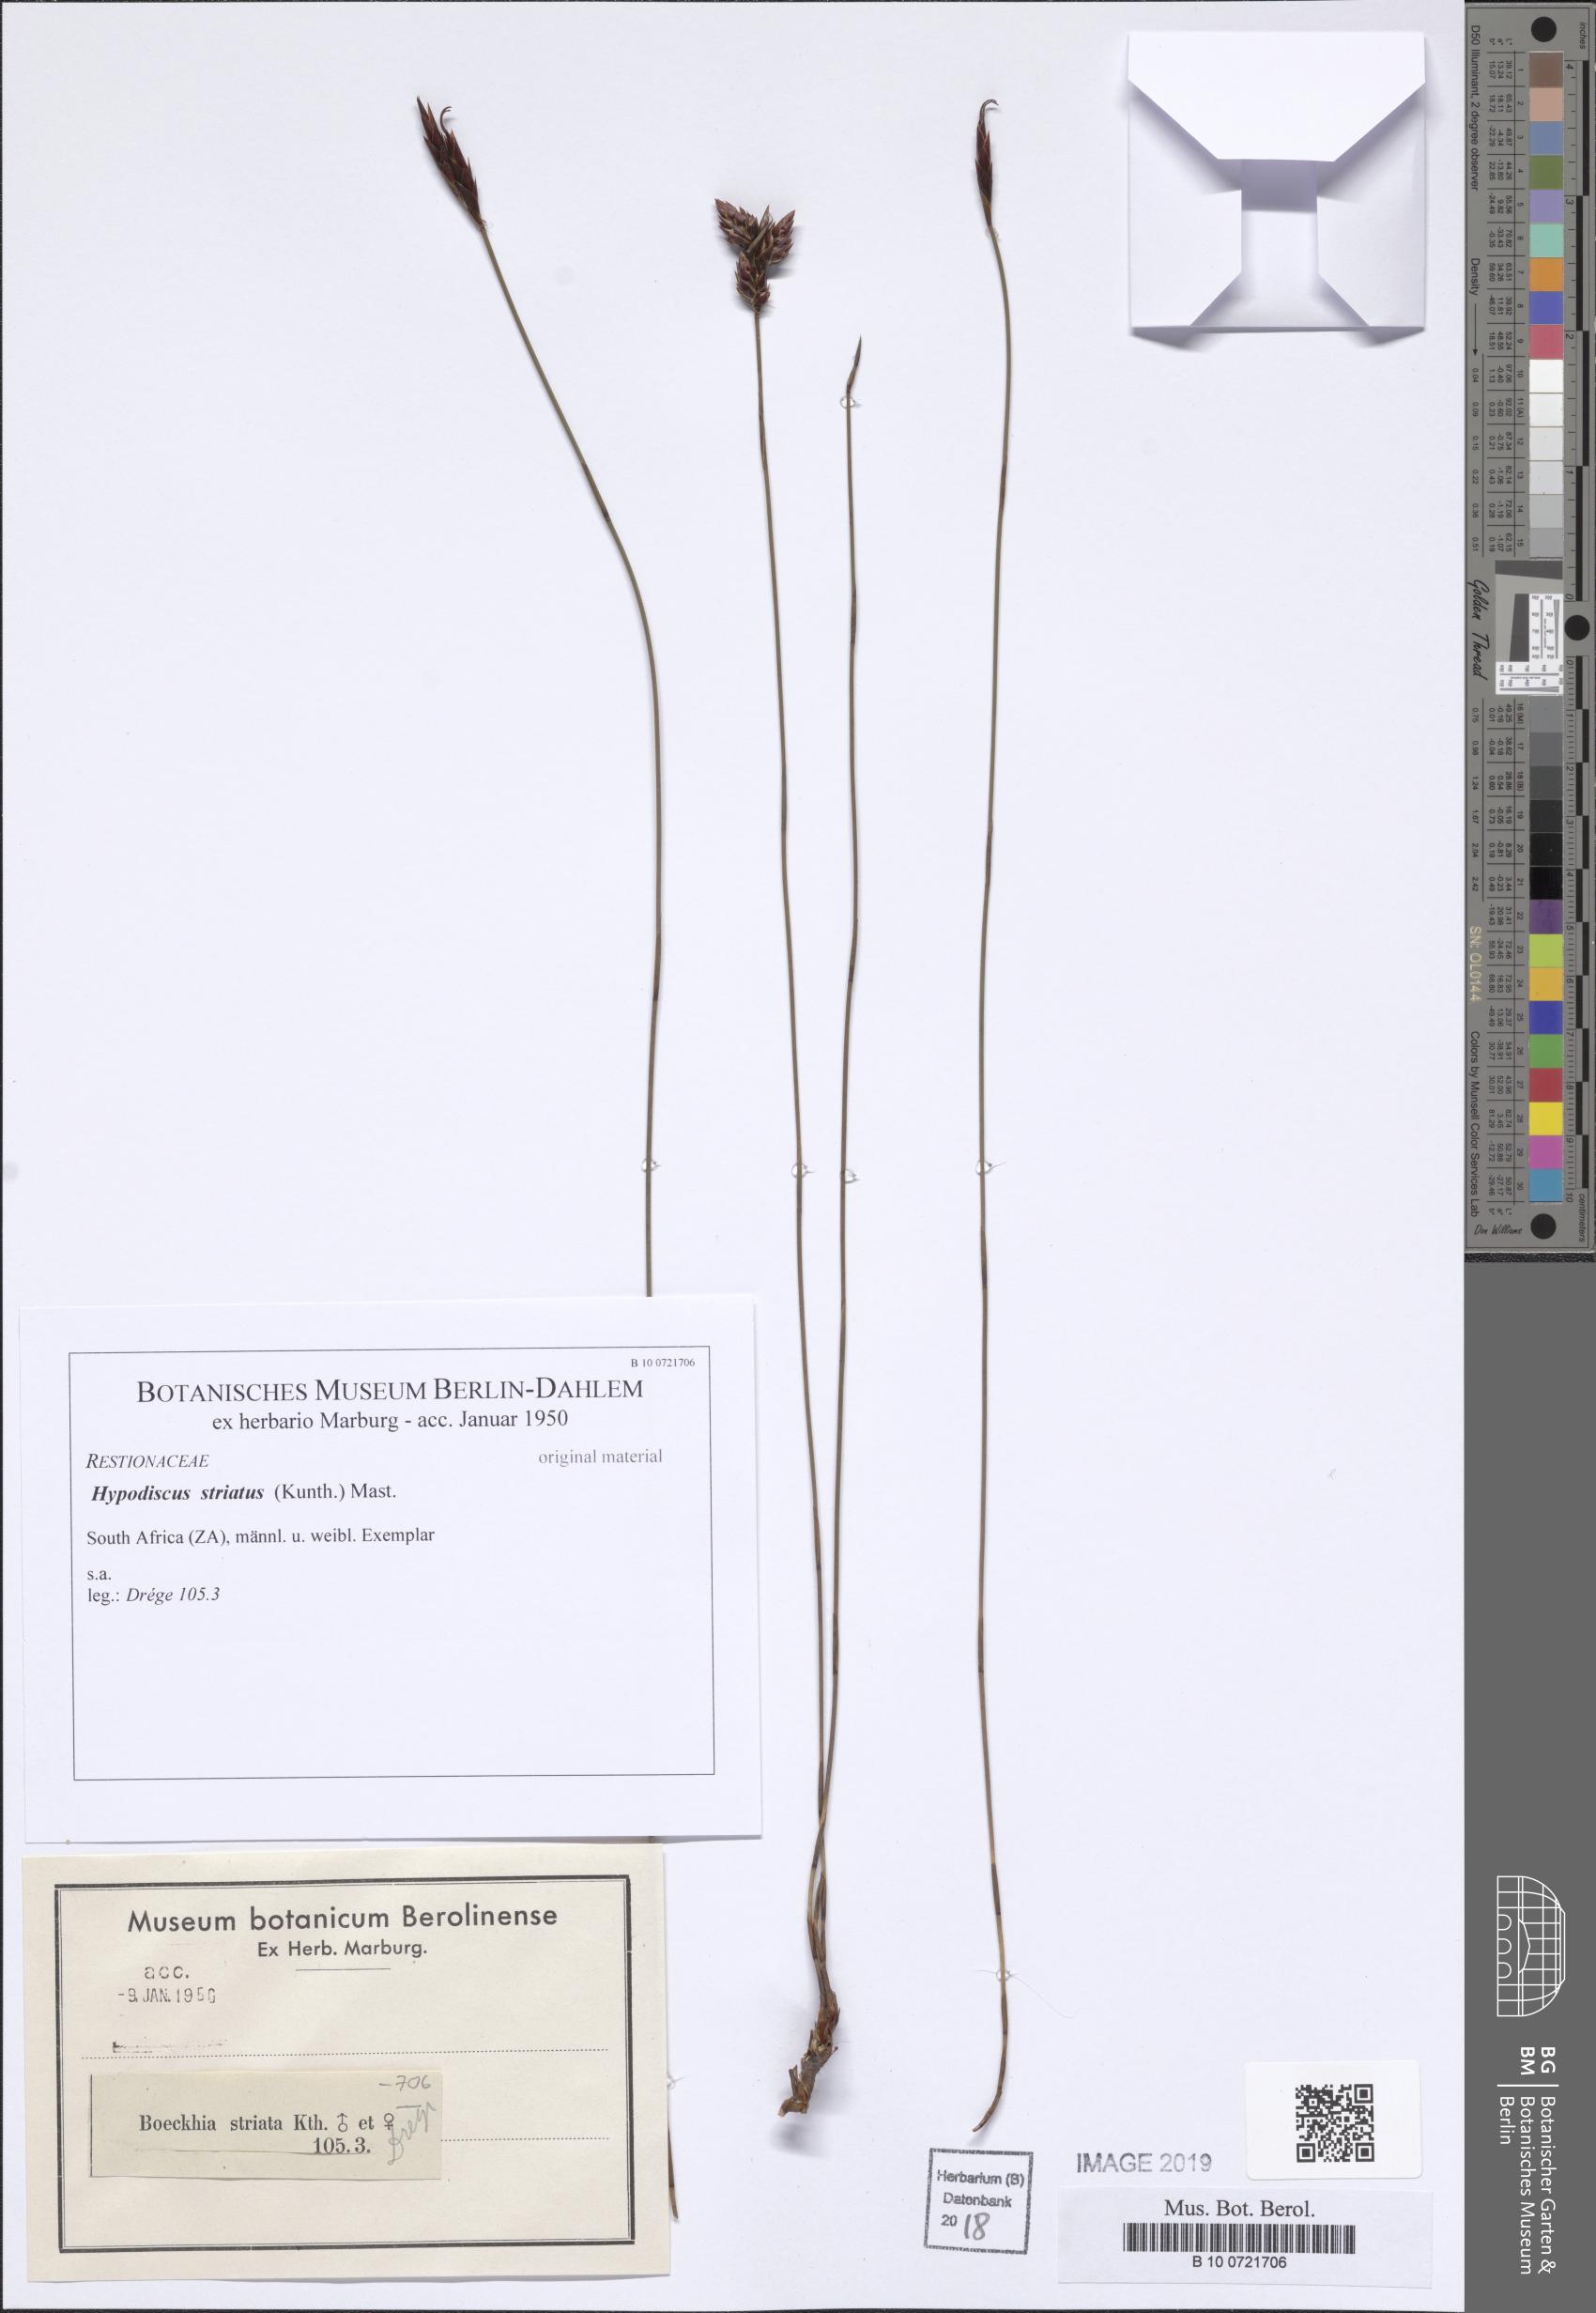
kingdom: Plantae
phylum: Tracheophyta
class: Liliopsida
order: Poales
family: Restionaceae
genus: Hypodiscus
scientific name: Hypodiscus striatus
